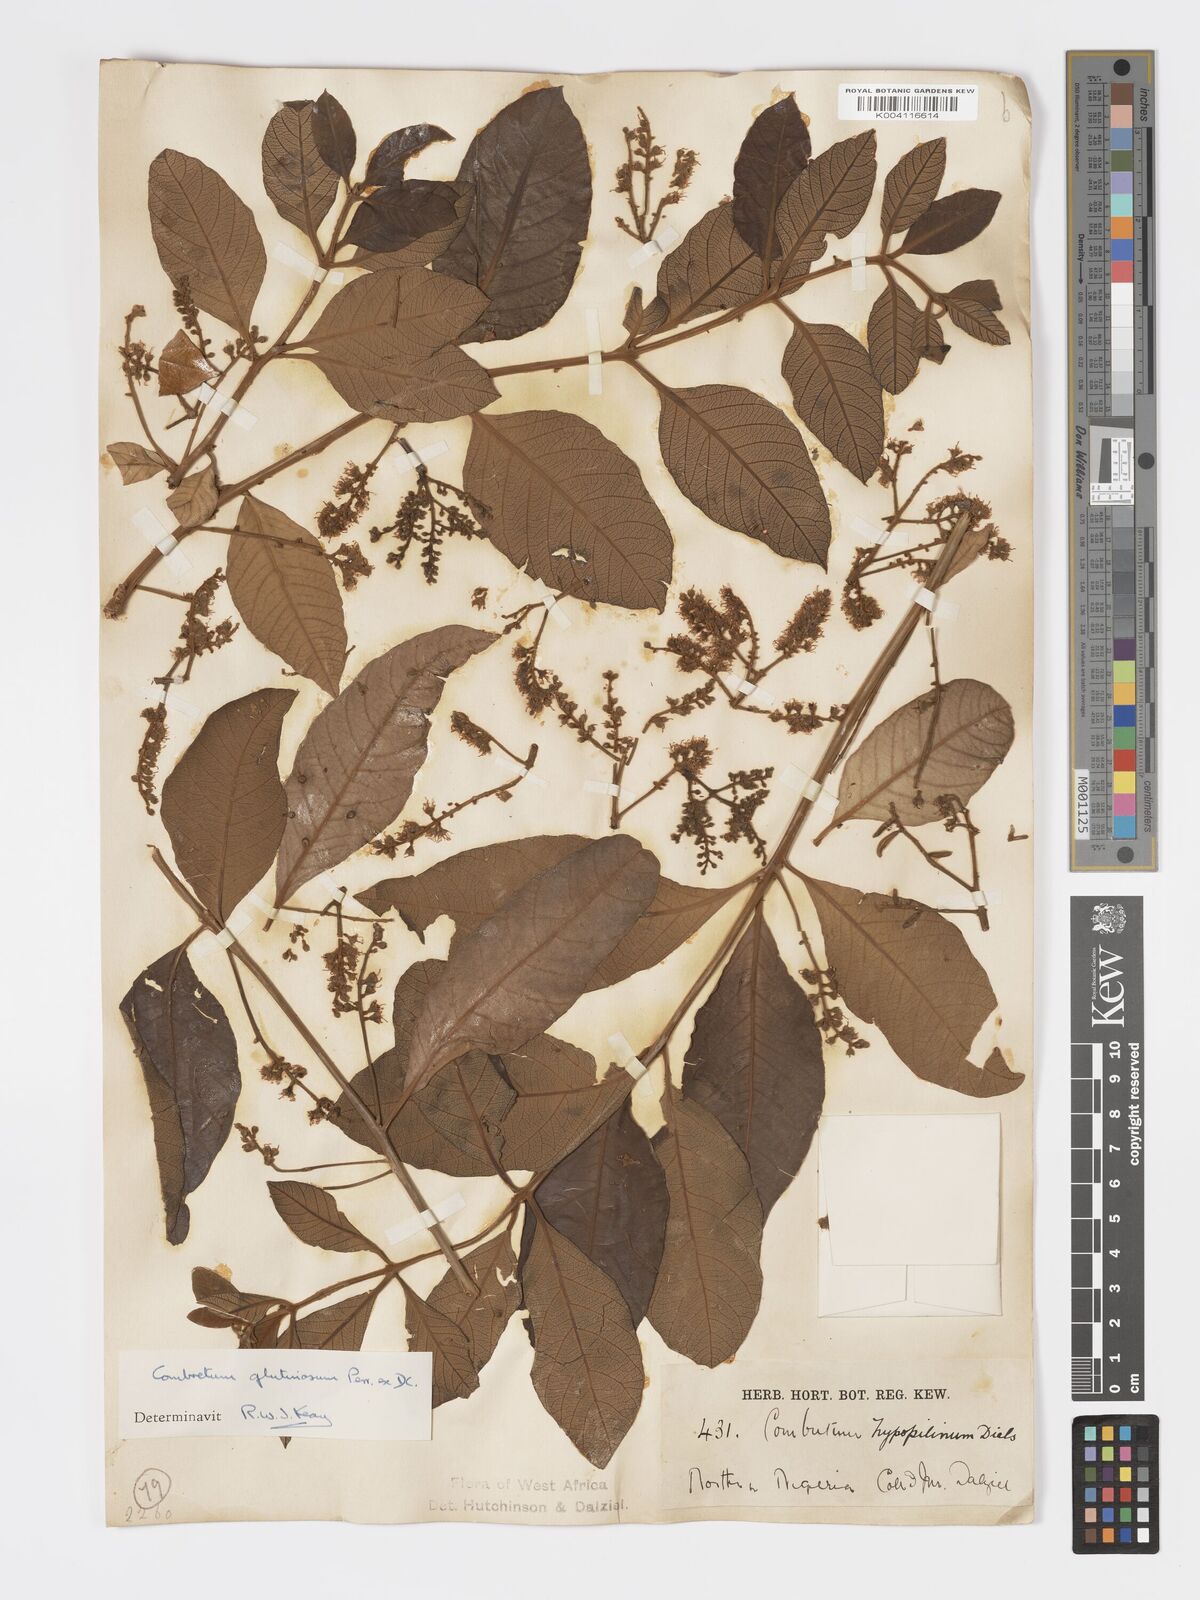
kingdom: Plantae
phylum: Tracheophyta
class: Magnoliopsida
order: Myrtales
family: Combretaceae
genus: Combretum
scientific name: Combretum
